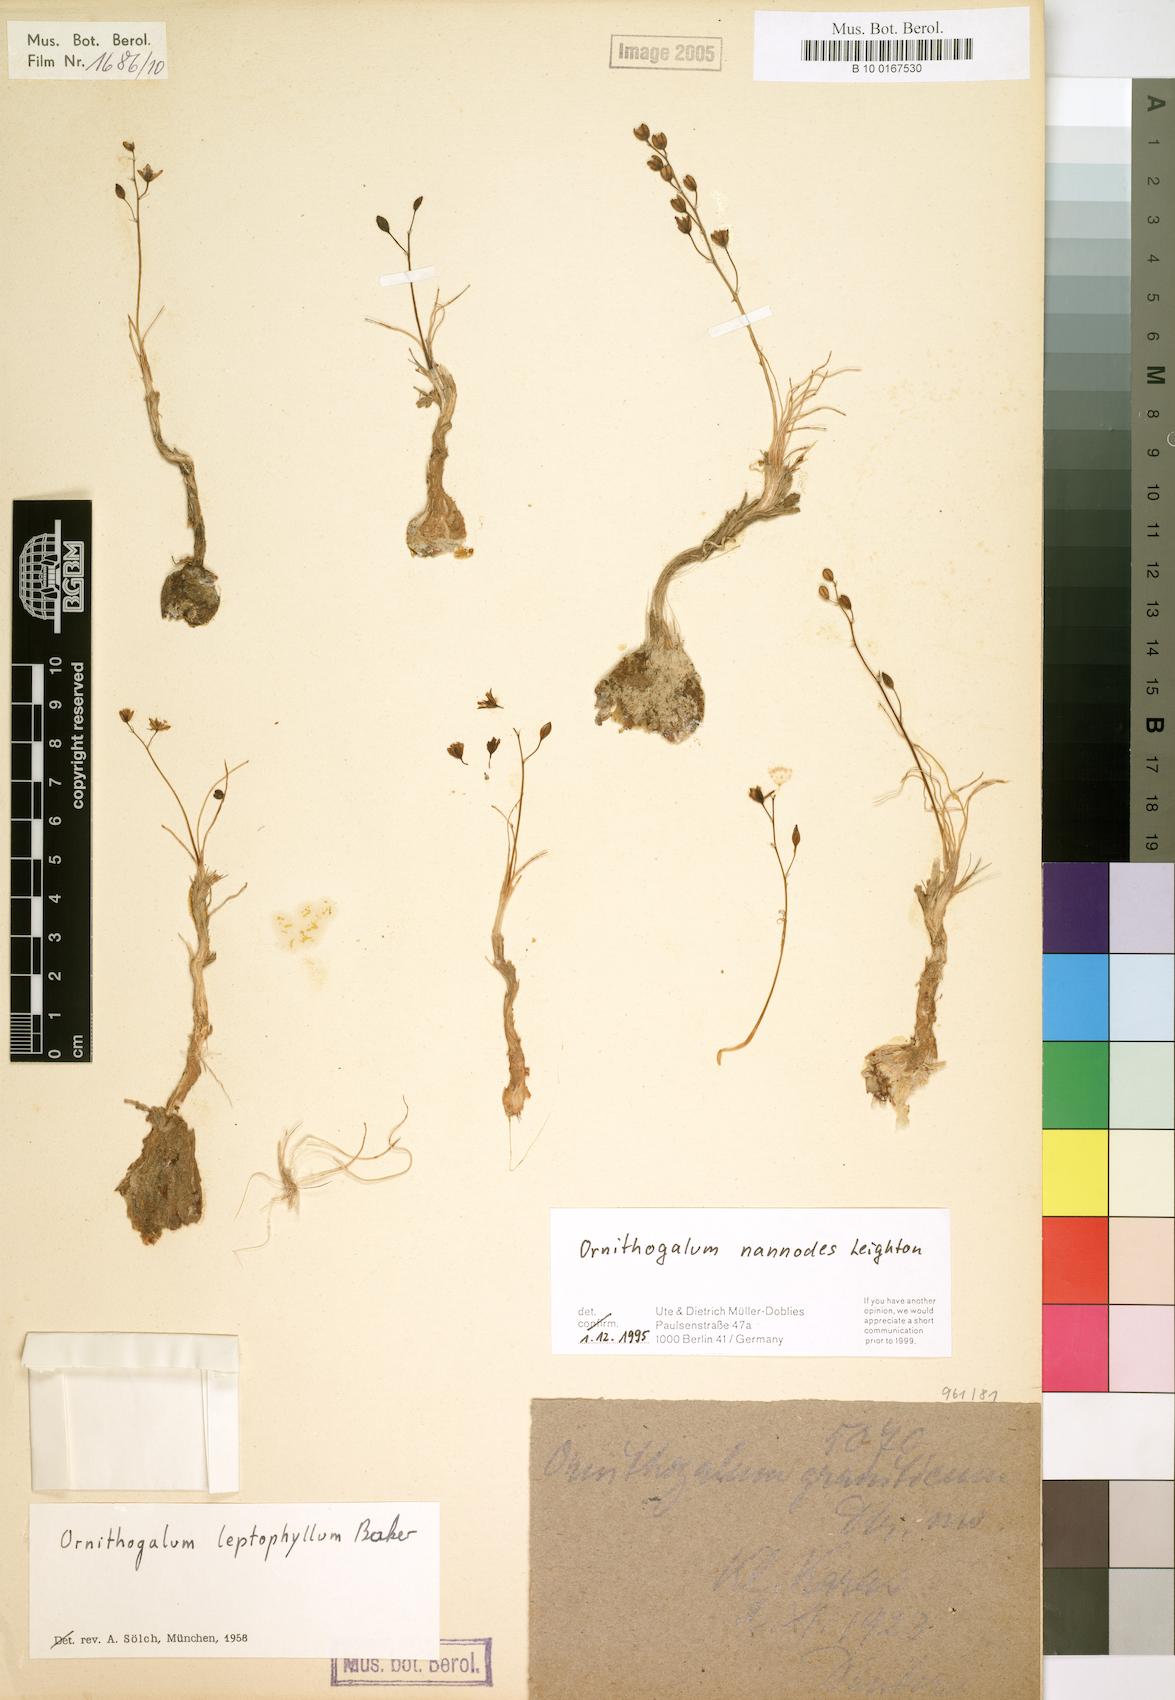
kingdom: Plantae
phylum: Tracheophyta
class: Liliopsida
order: Asparagales
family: Asparagaceae
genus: Ornithogalum
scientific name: Ornithogalum nanodes
